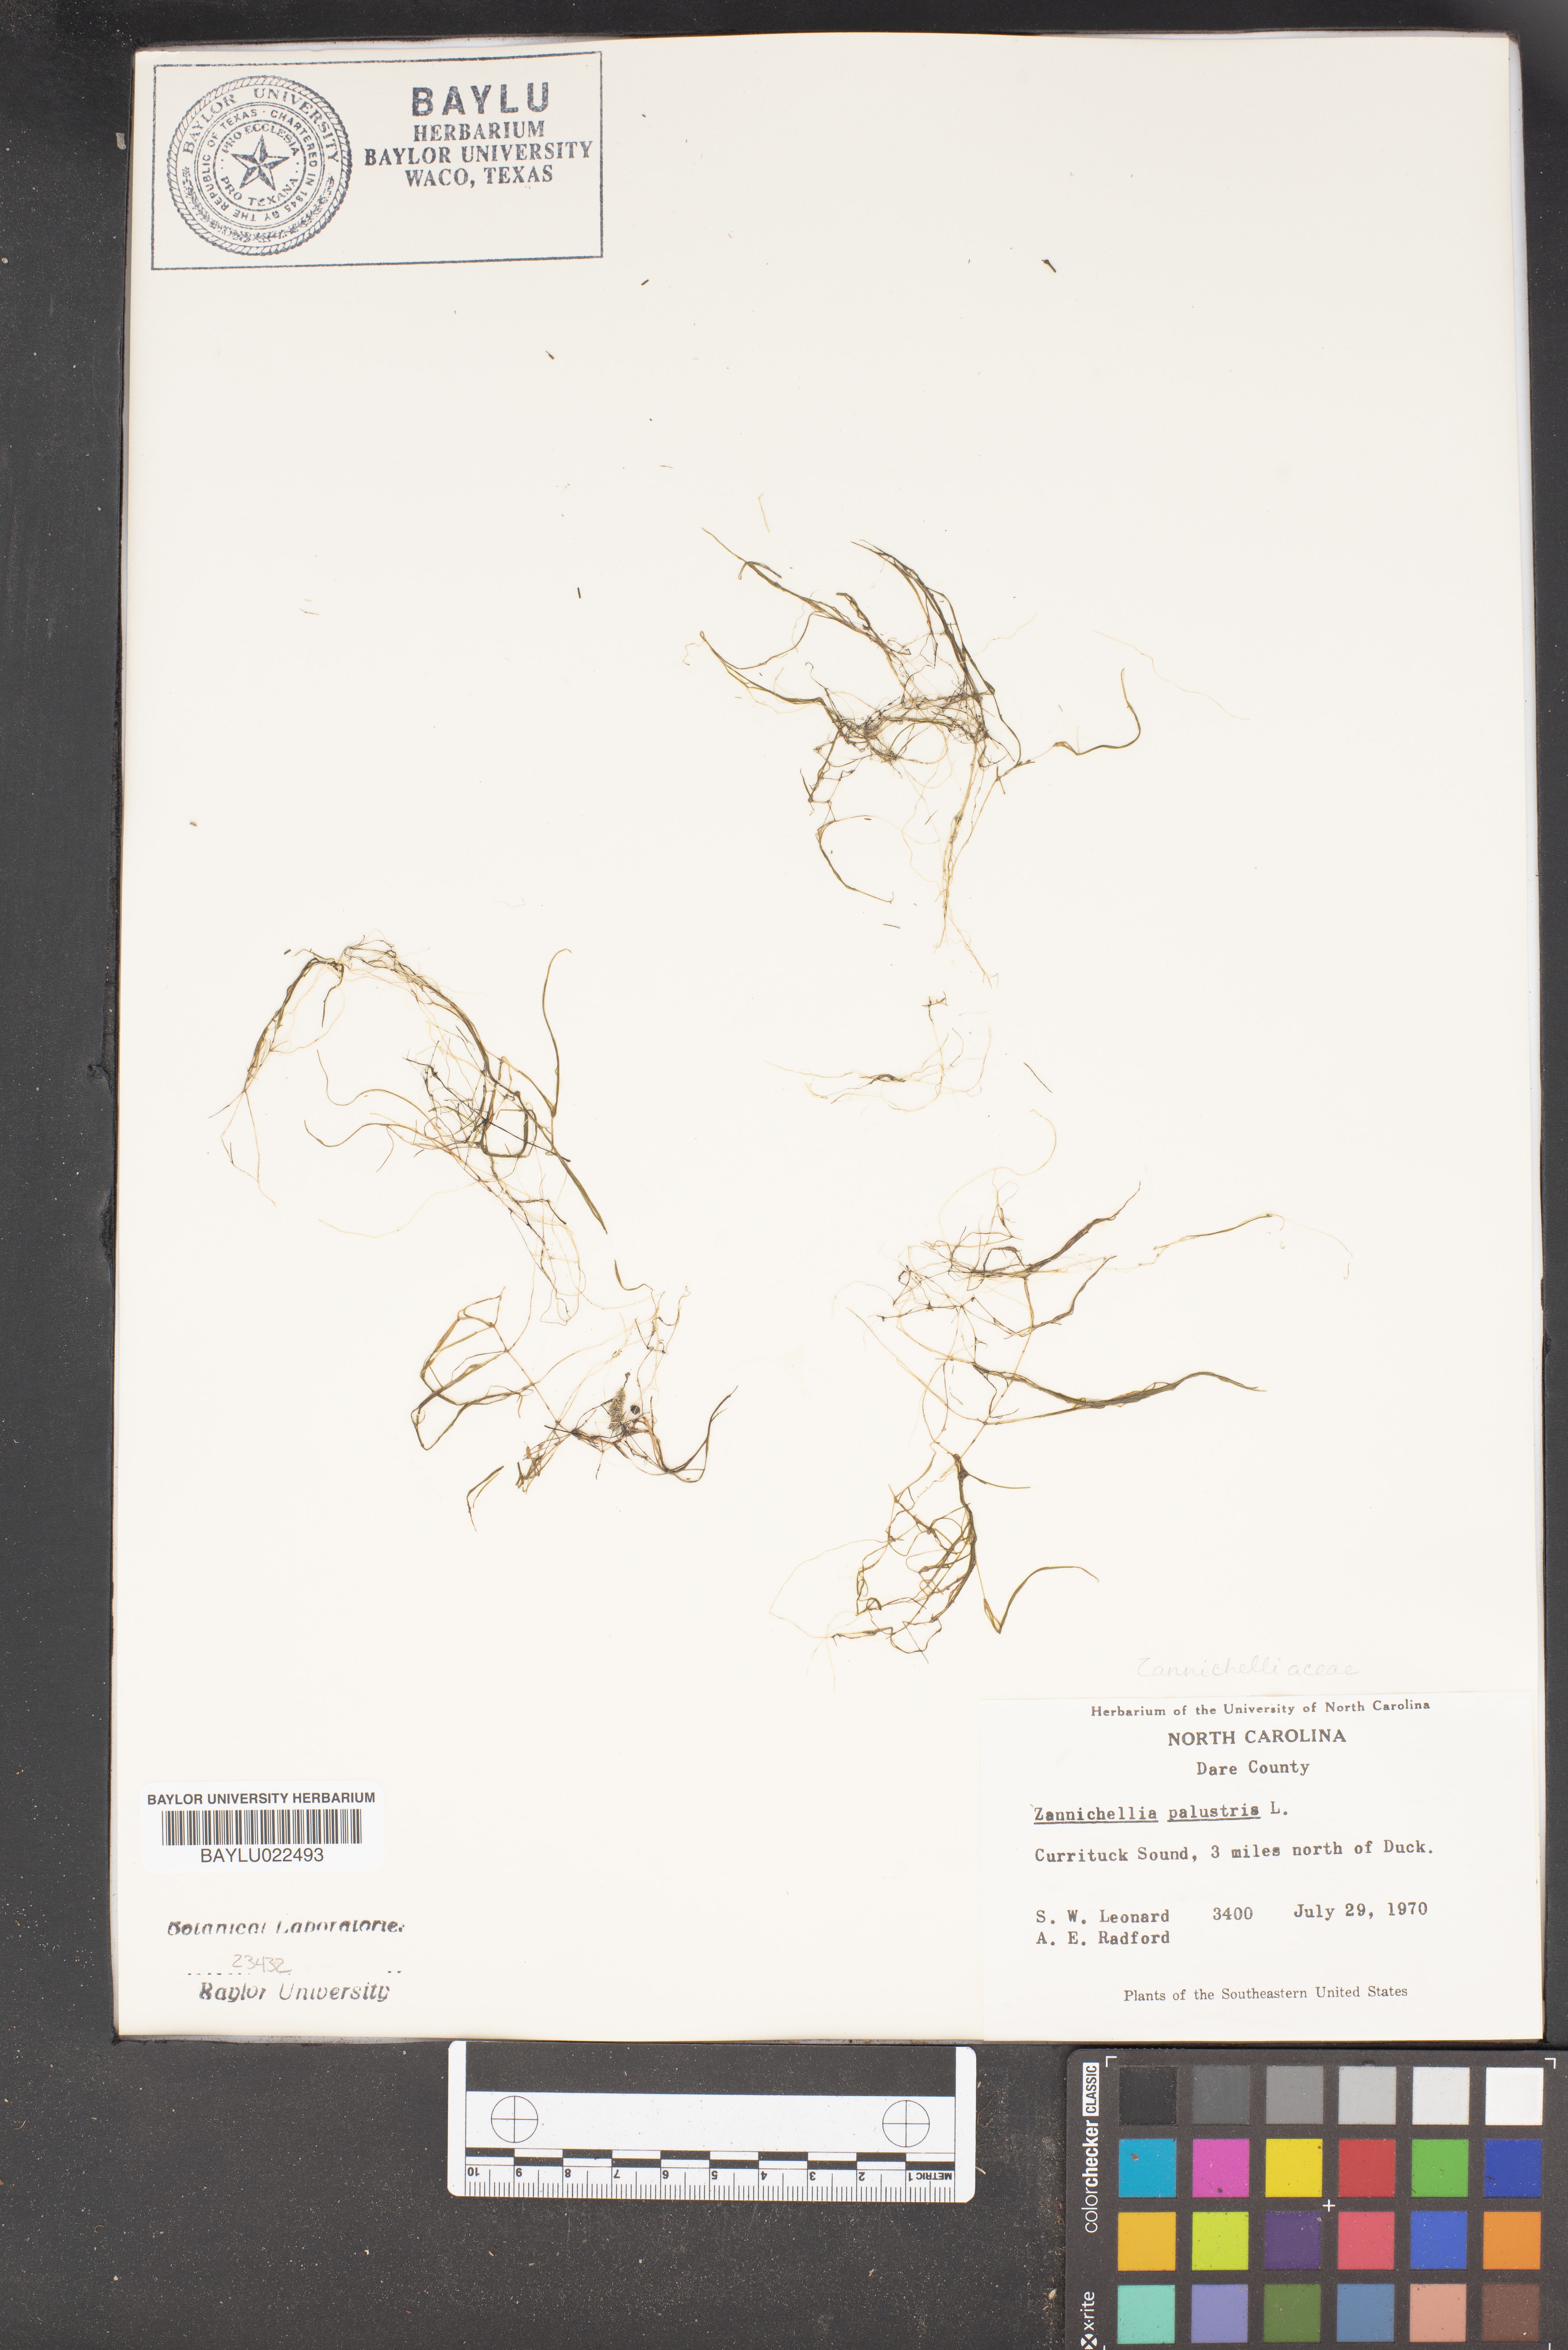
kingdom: Plantae
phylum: Tracheophyta
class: Liliopsida
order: Alismatales
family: Potamogetonaceae
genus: Zannichellia
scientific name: Zannichellia palustris
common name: Horned pondweed
